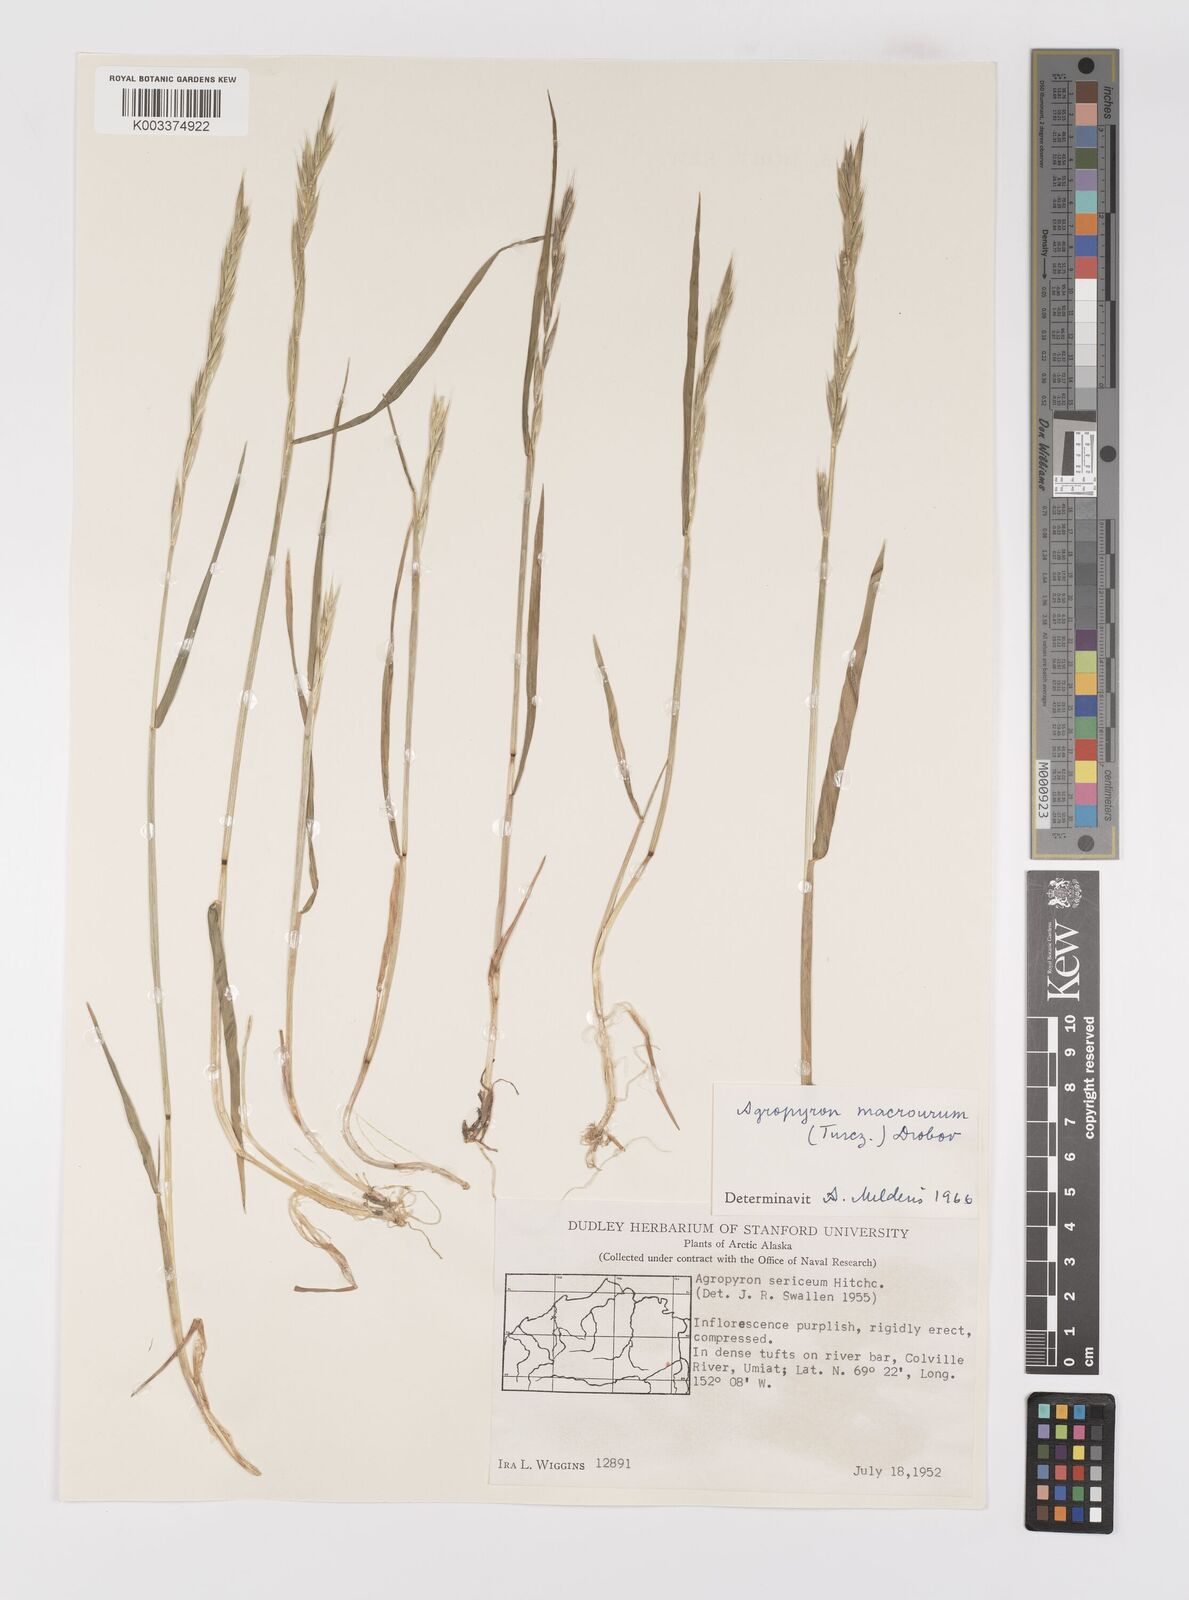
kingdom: Plantae
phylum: Tracheophyta
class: Liliopsida
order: Poales
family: Poaceae
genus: Elymus
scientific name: Elymus macrourus
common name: Northern wheatgrass
